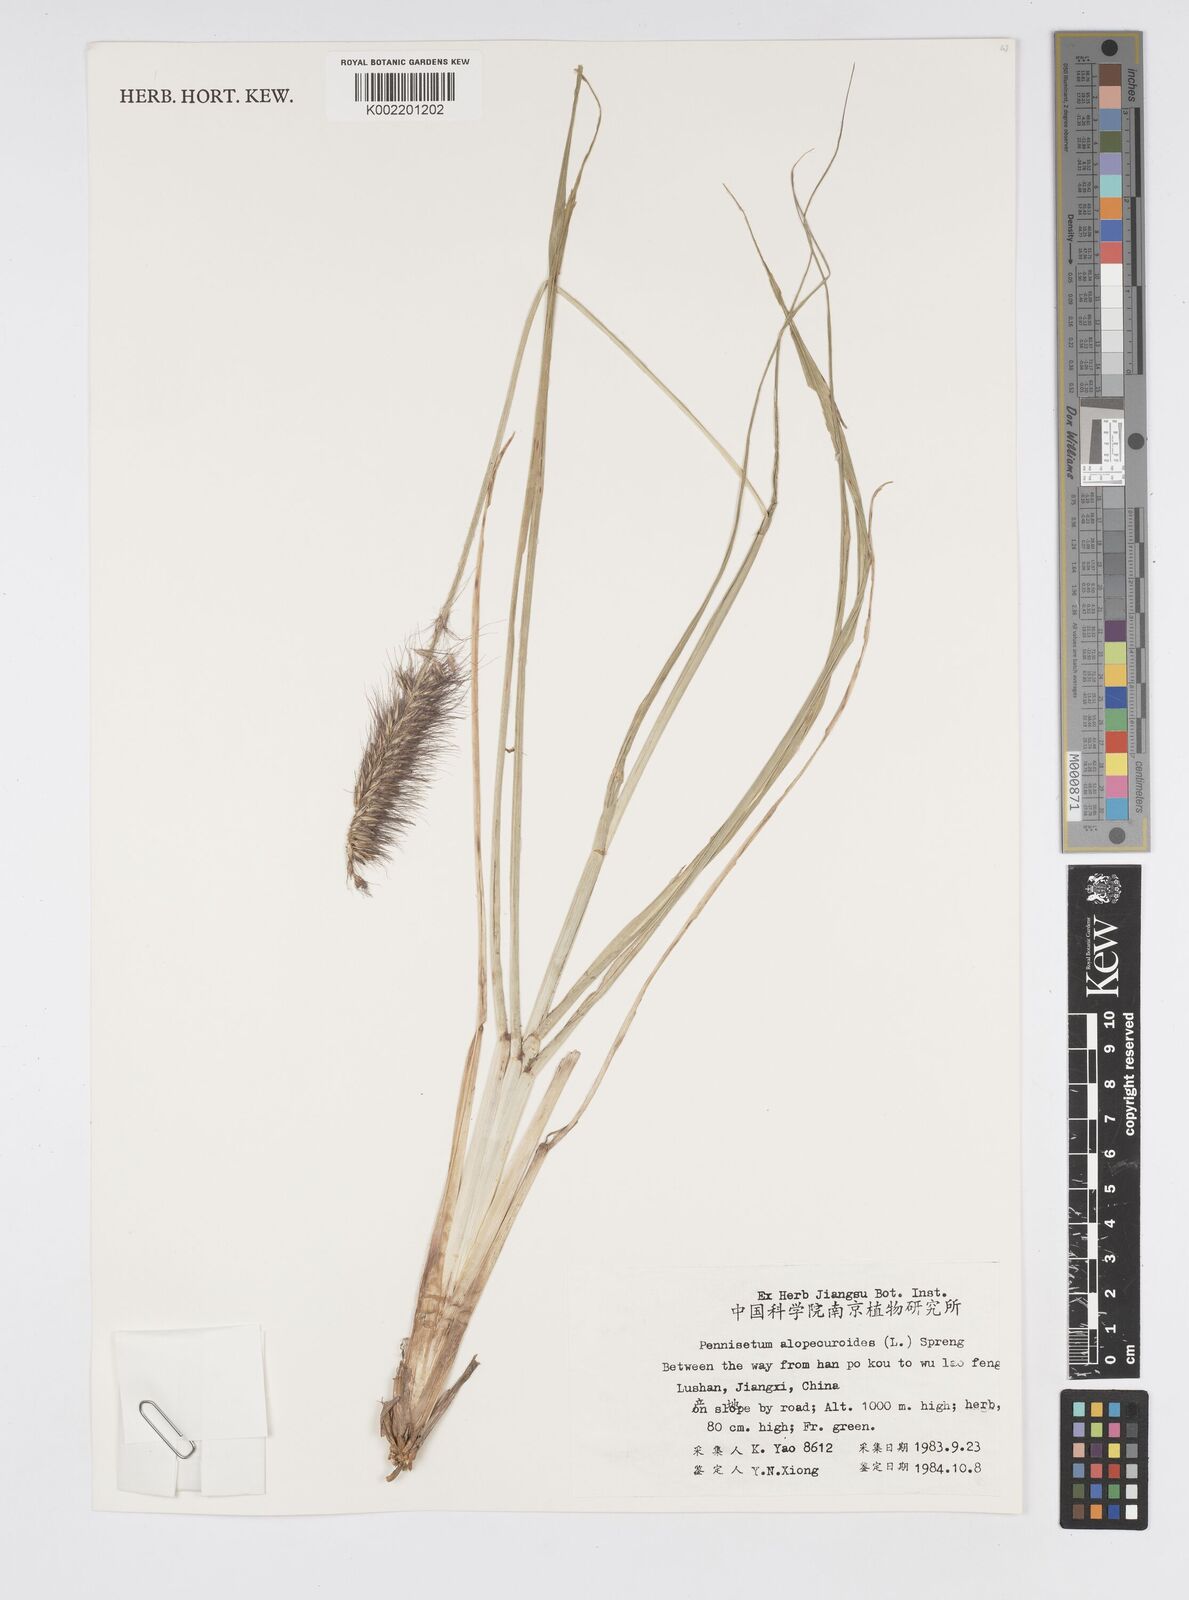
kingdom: Plantae
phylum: Tracheophyta
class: Liliopsida
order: Poales
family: Poaceae
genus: Cenchrus
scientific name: Cenchrus alopecuroides
